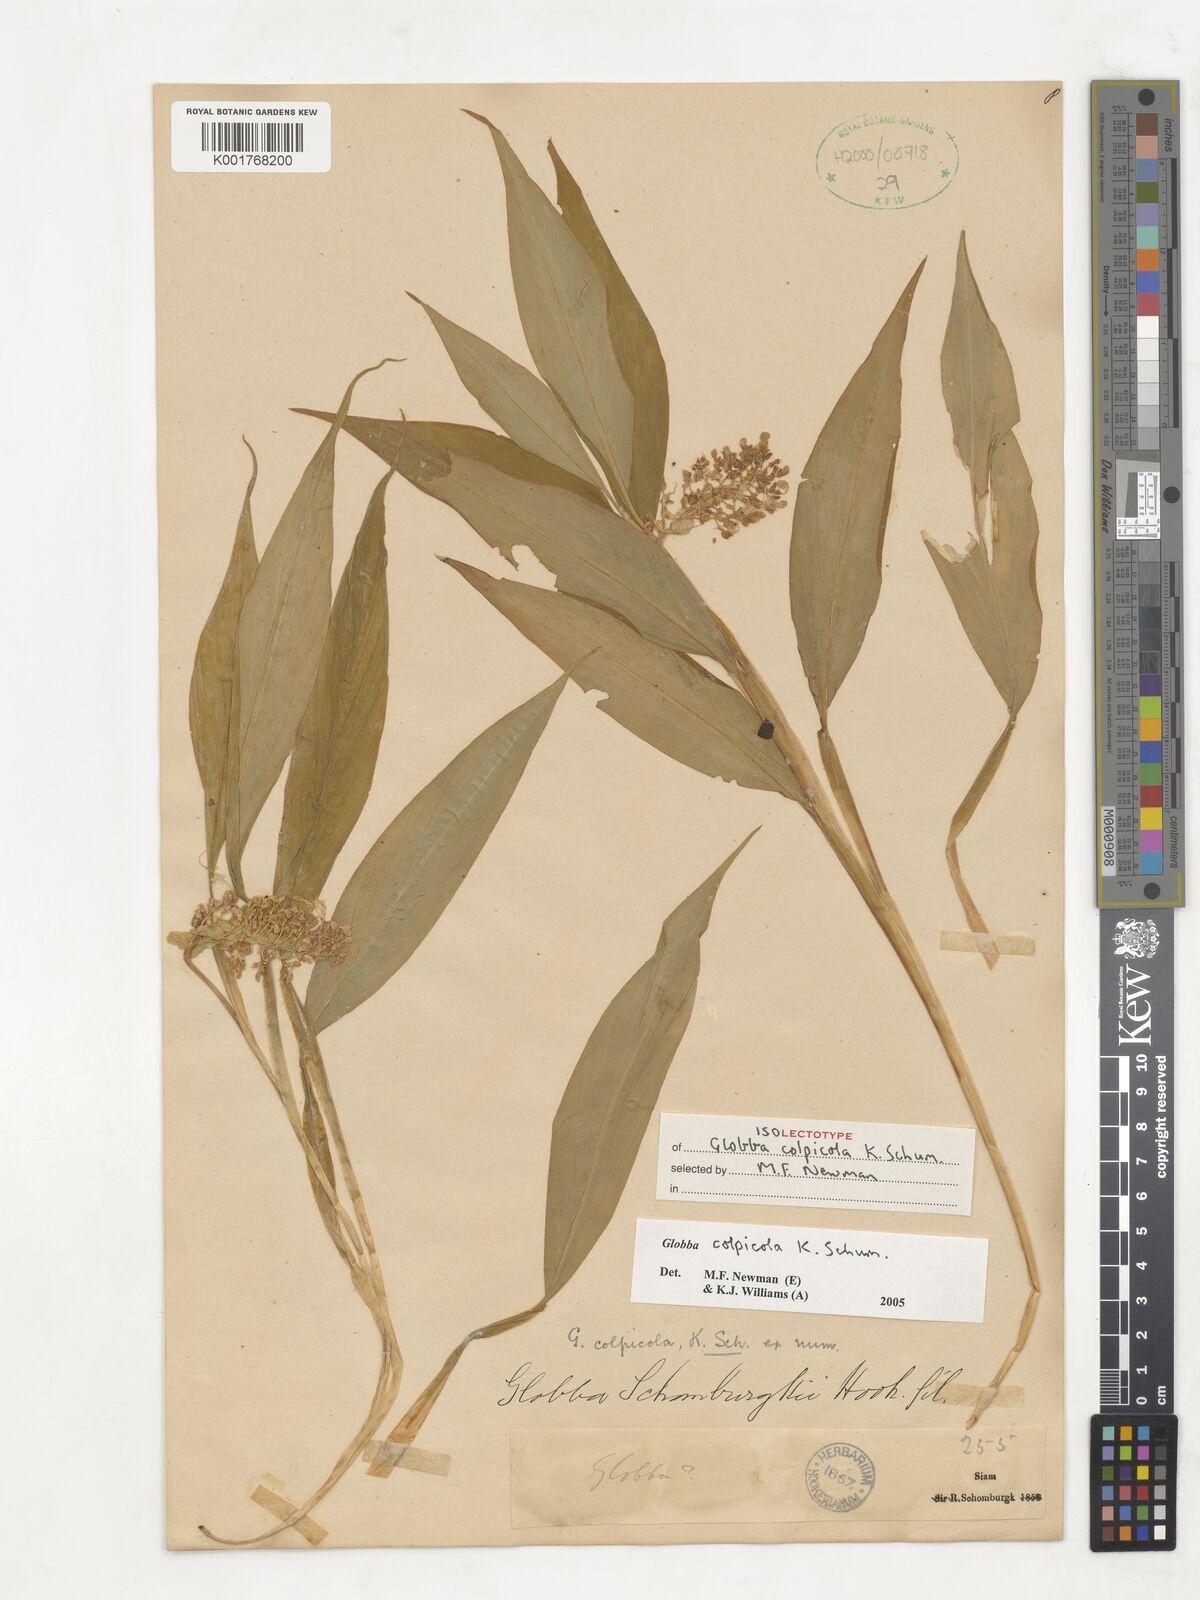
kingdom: Plantae
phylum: Tracheophyta
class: Liliopsida
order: Zingiberales
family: Zingiberaceae
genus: Globba
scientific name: Globba colpicola
